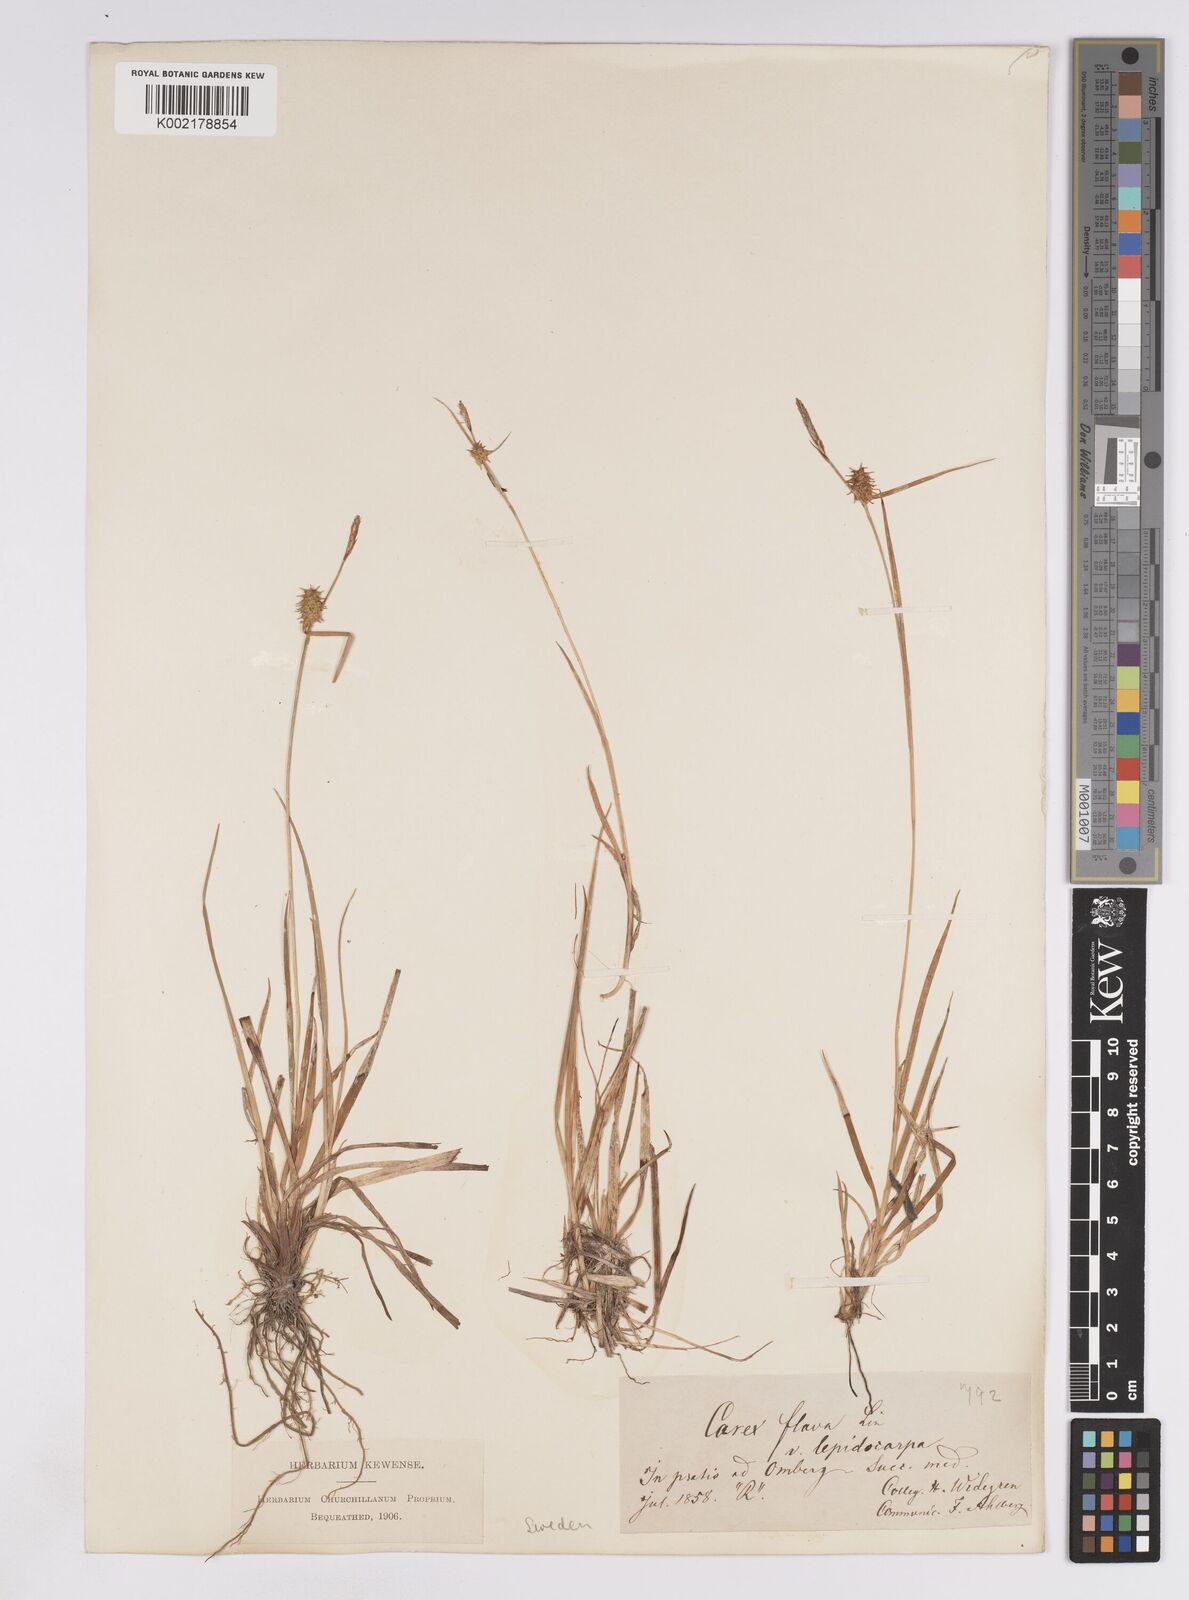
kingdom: Plantae
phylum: Tracheophyta
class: Liliopsida
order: Poales
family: Cyperaceae
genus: Carex
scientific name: Carex lepidocarpa
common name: Long-stalked yellow-sedge
